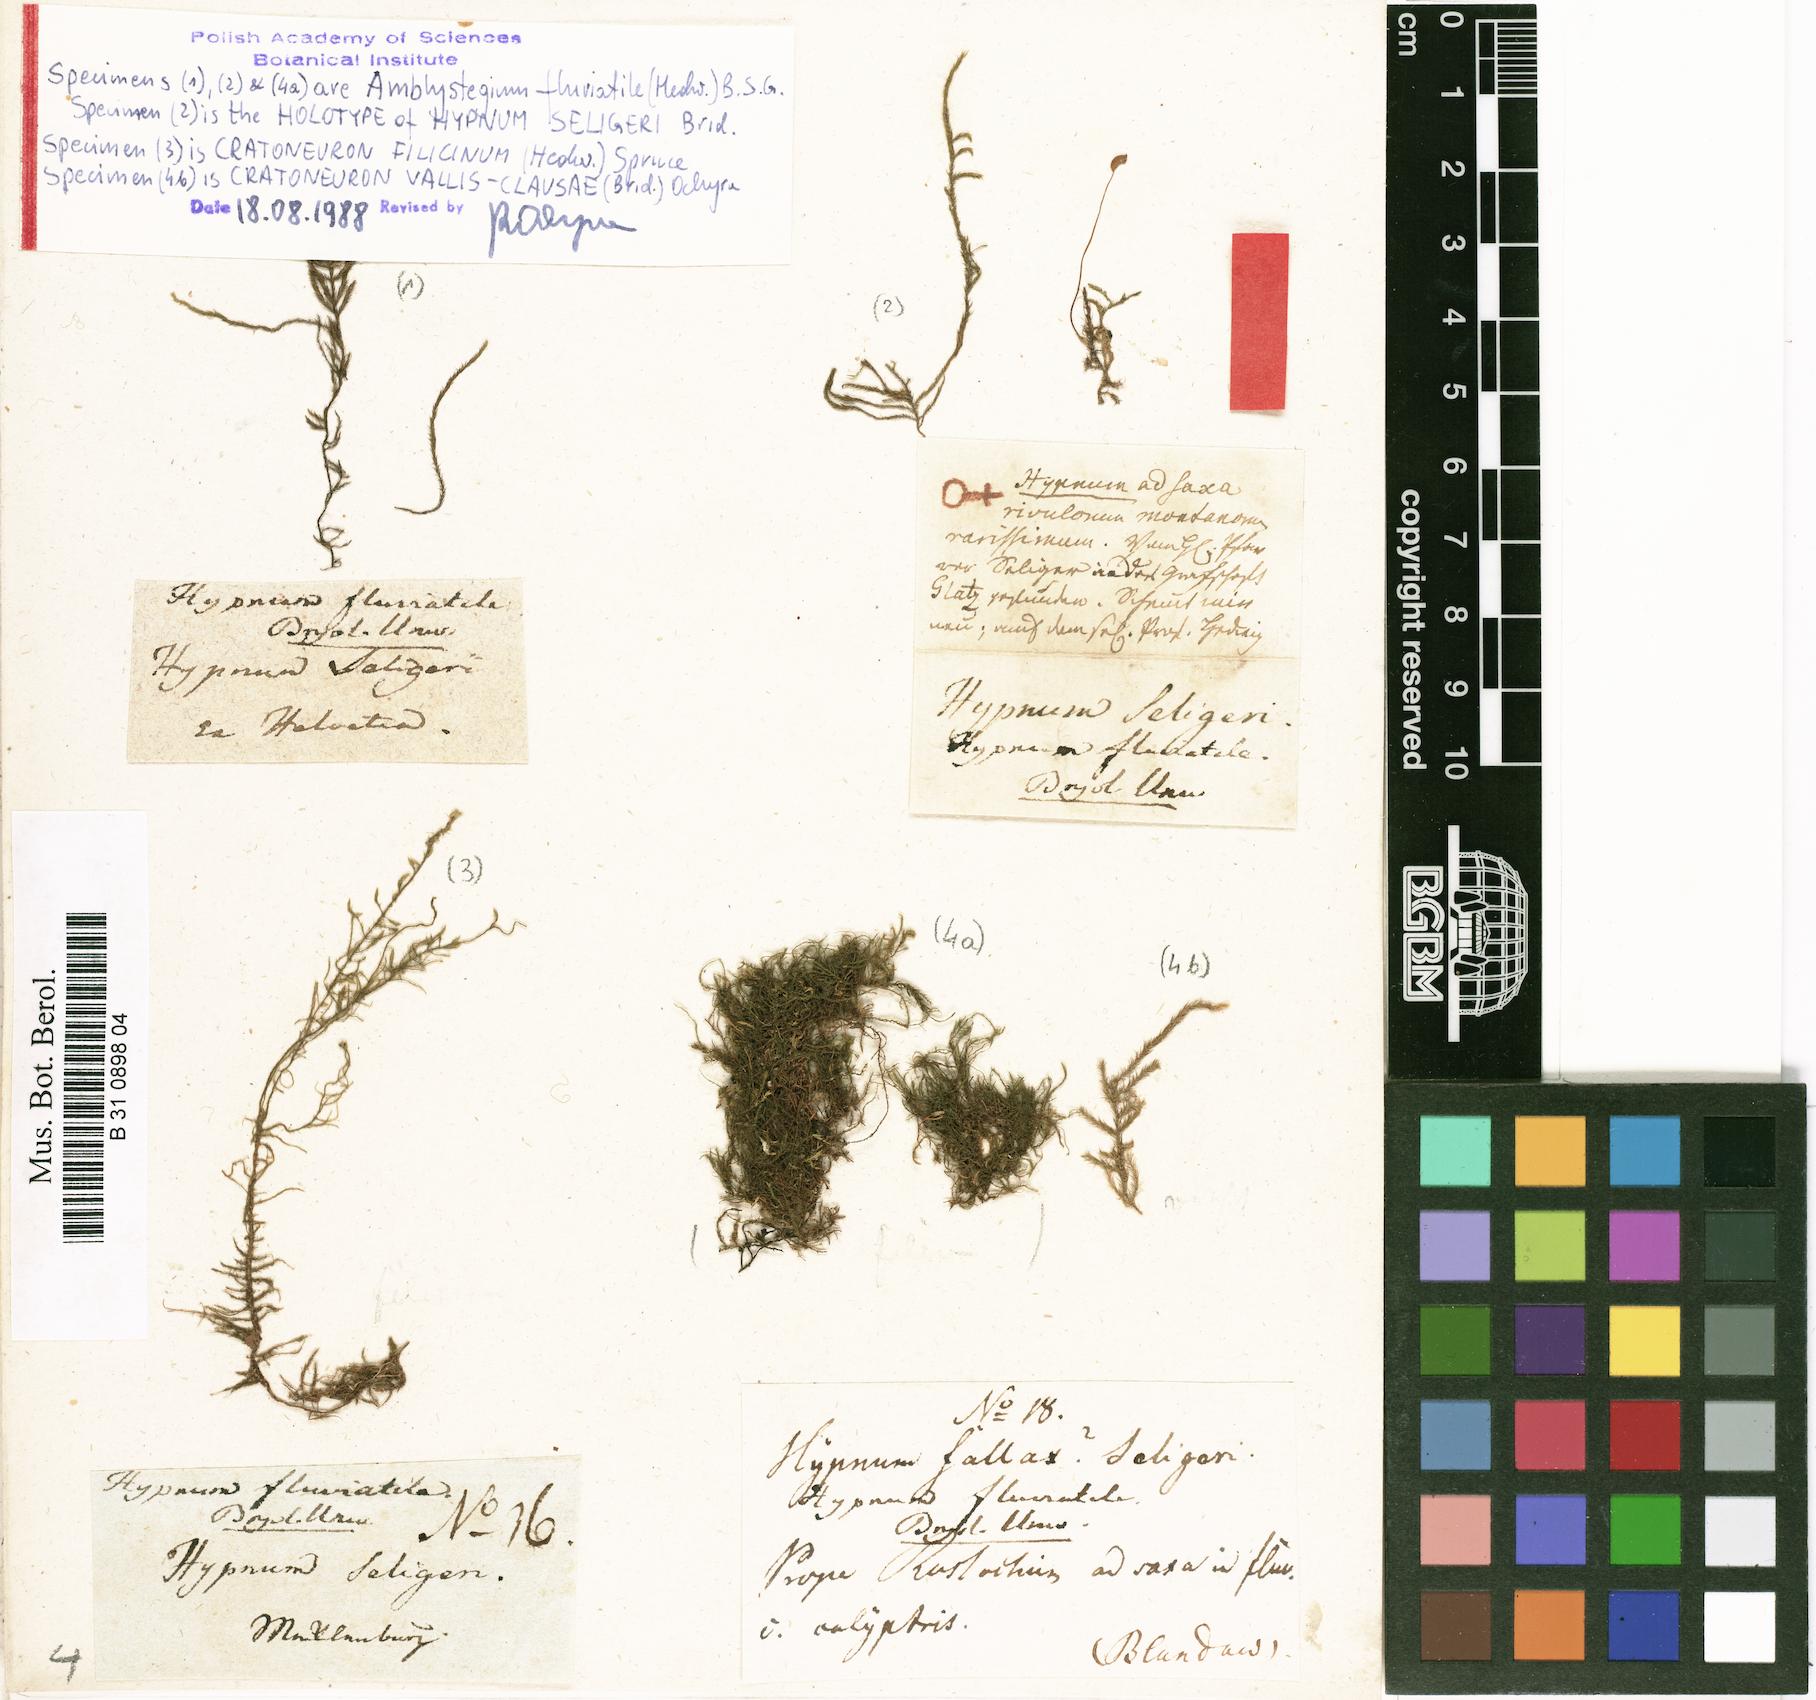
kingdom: Plantae
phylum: Bryophyta
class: Bryopsida
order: Hypnales
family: Amblystegiaceae
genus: Hygroamblystegium
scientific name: Hygroamblystegium fluviatile
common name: Brook-side feather-moss
